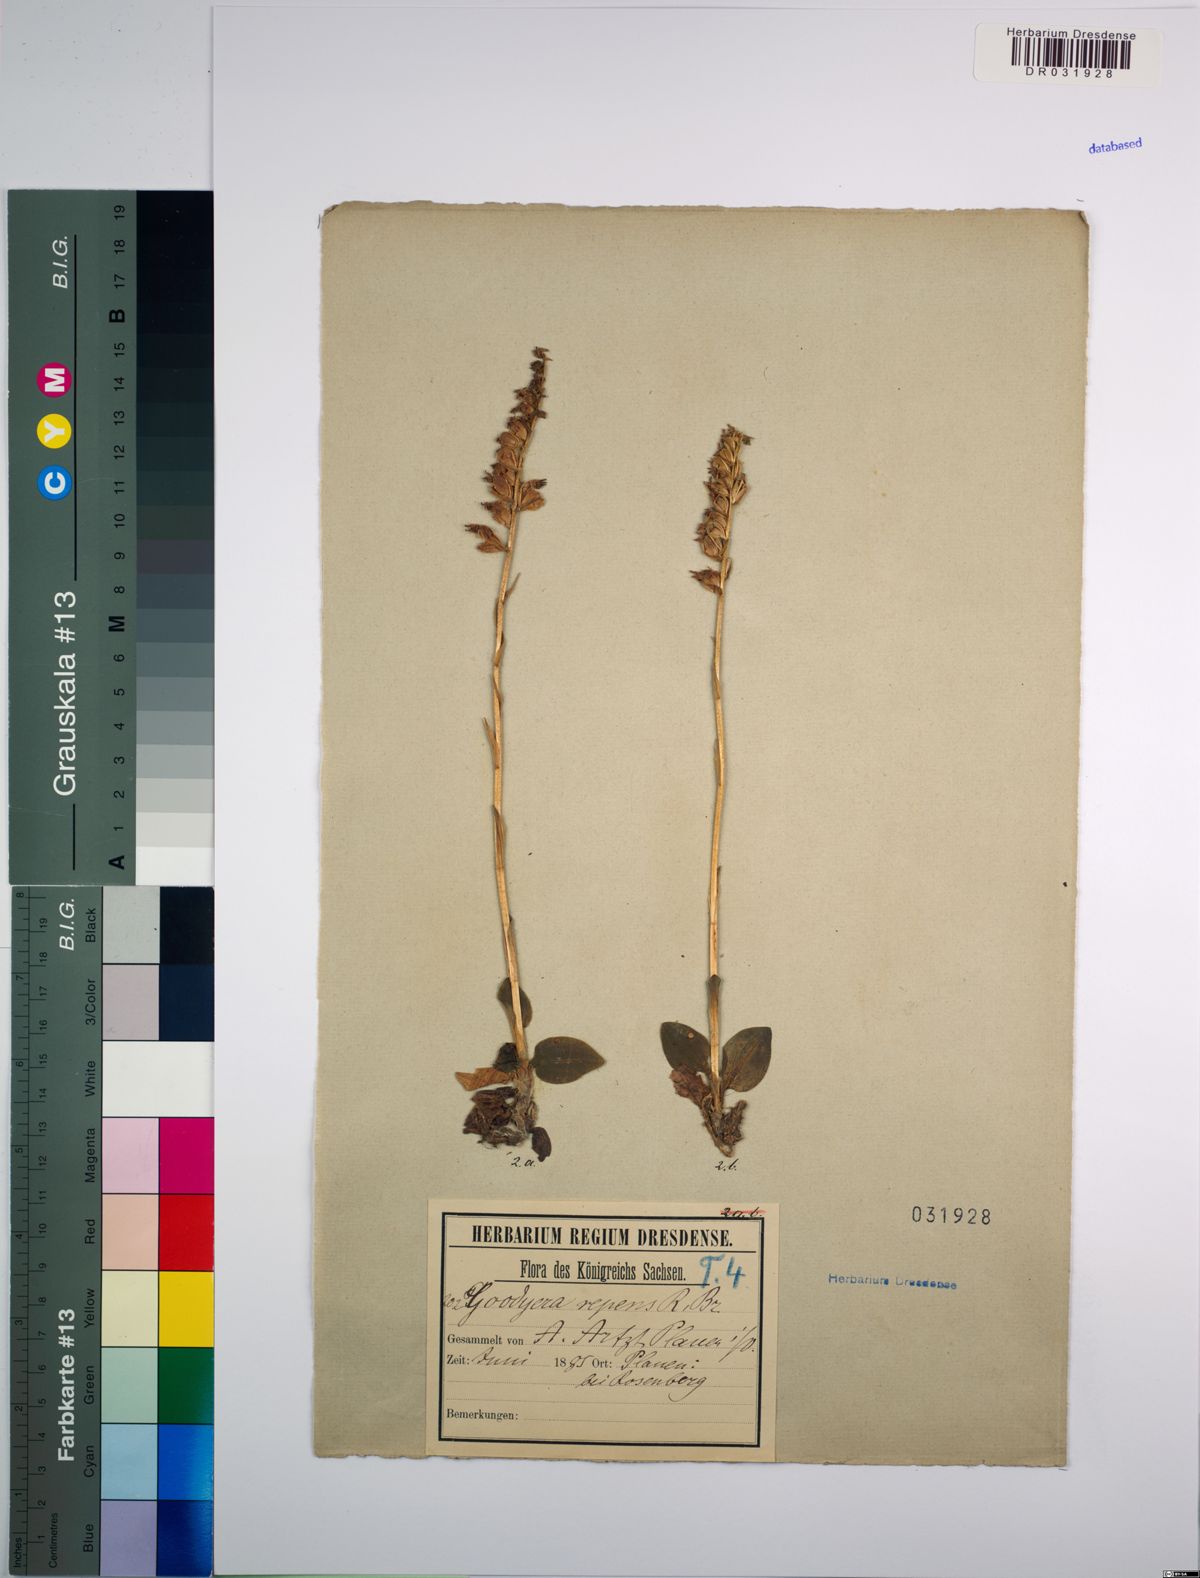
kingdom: Plantae
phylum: Tracheophyta
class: Liliopsida
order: Asparagales
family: Orchidaceae
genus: Goodyera
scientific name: Goodyera repens
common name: Creeping lady's-tresses
